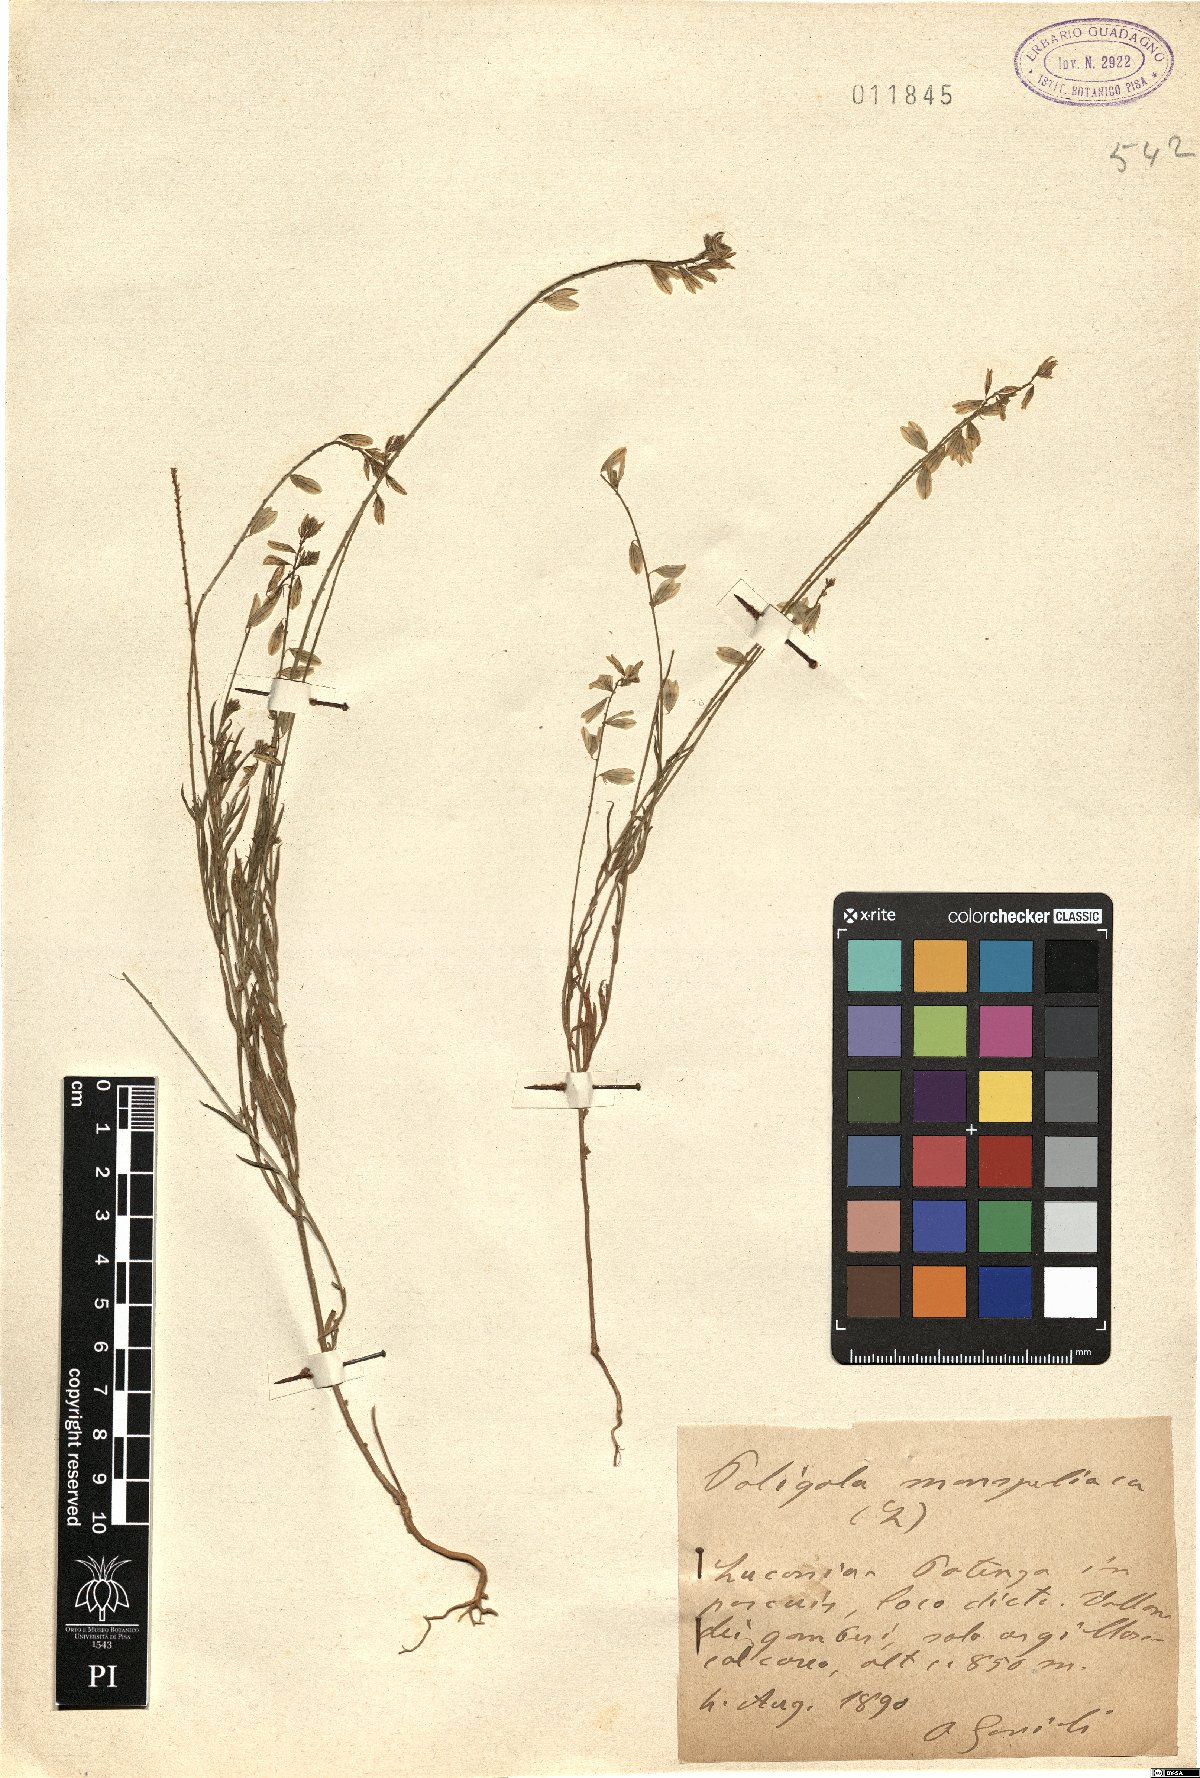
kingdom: Plantae
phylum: Tracheophyta
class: Magnoliopsida
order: Fabales
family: Polygalaceae
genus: Polygala
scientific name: Polygala monspeliaca
